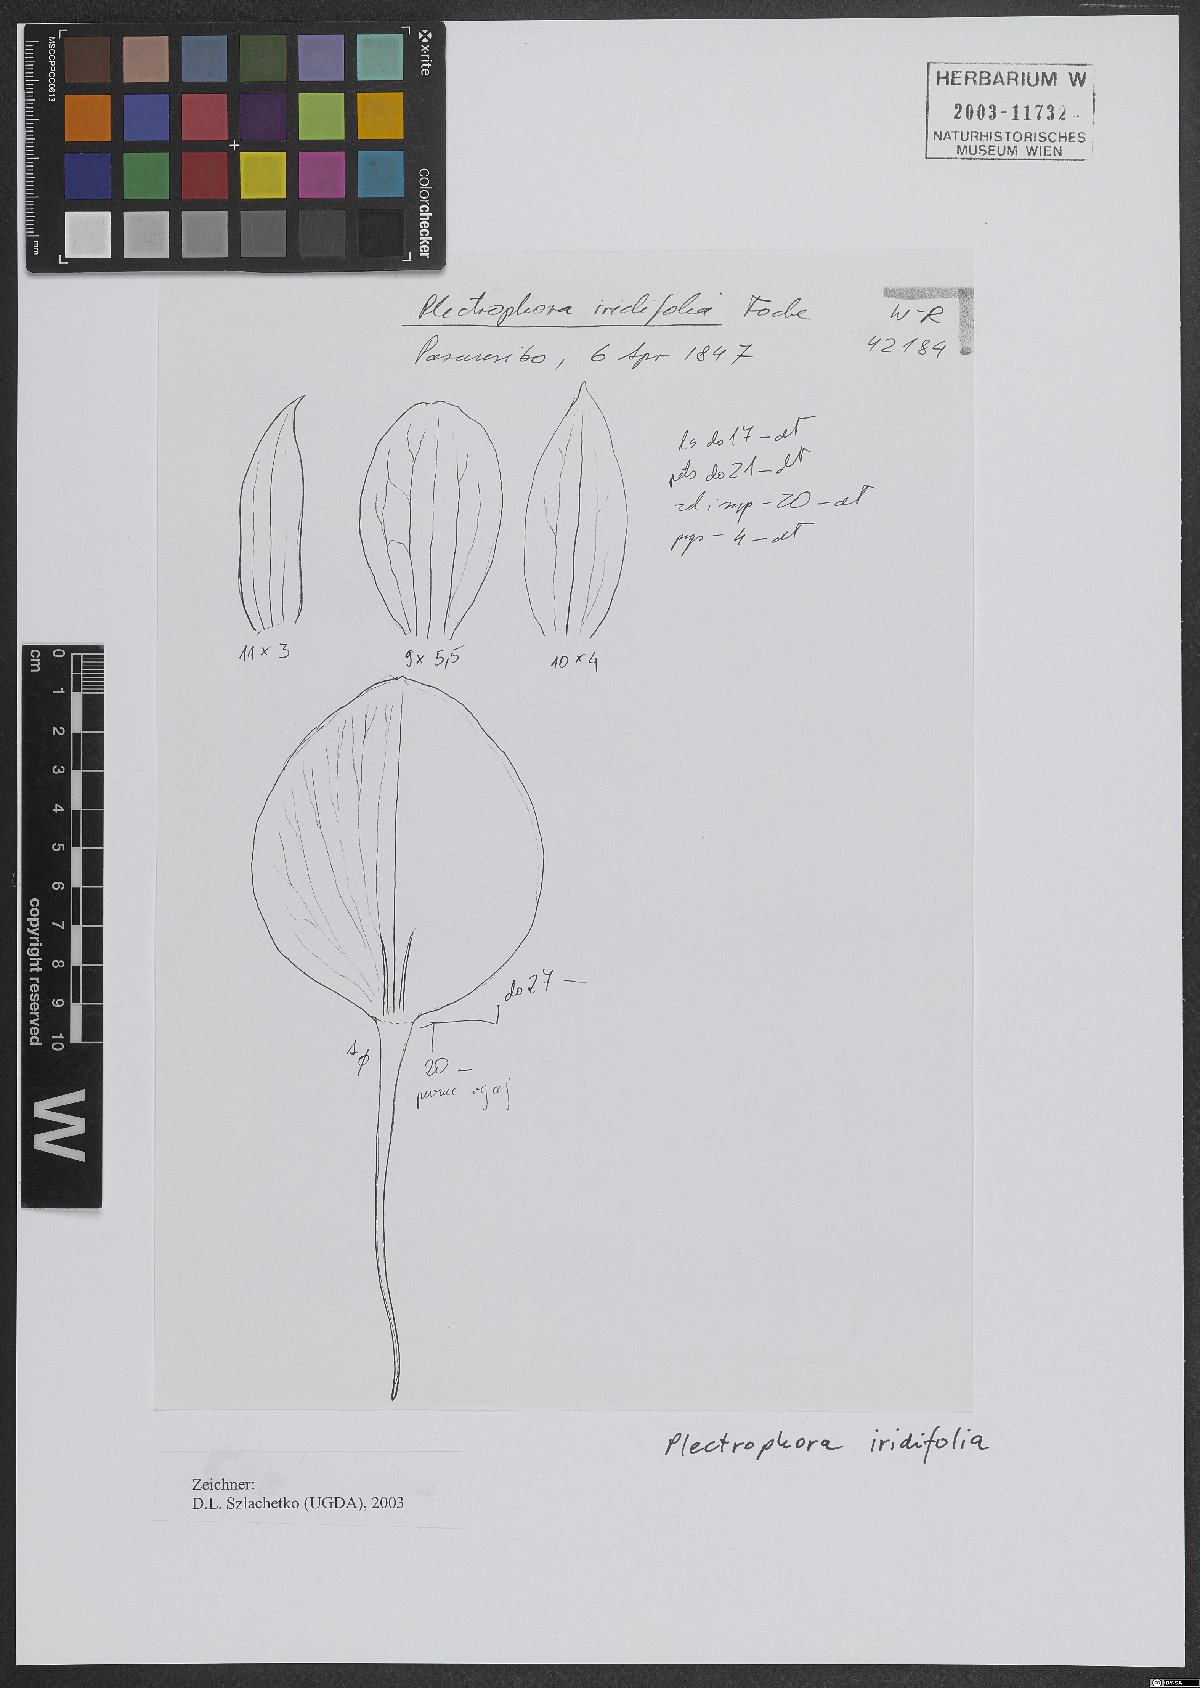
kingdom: Plantae
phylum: Tracheophyta
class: Liliopsida
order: Asparagales
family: Orchidaceae
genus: Plectrophora
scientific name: Plectrophora iridifolia
